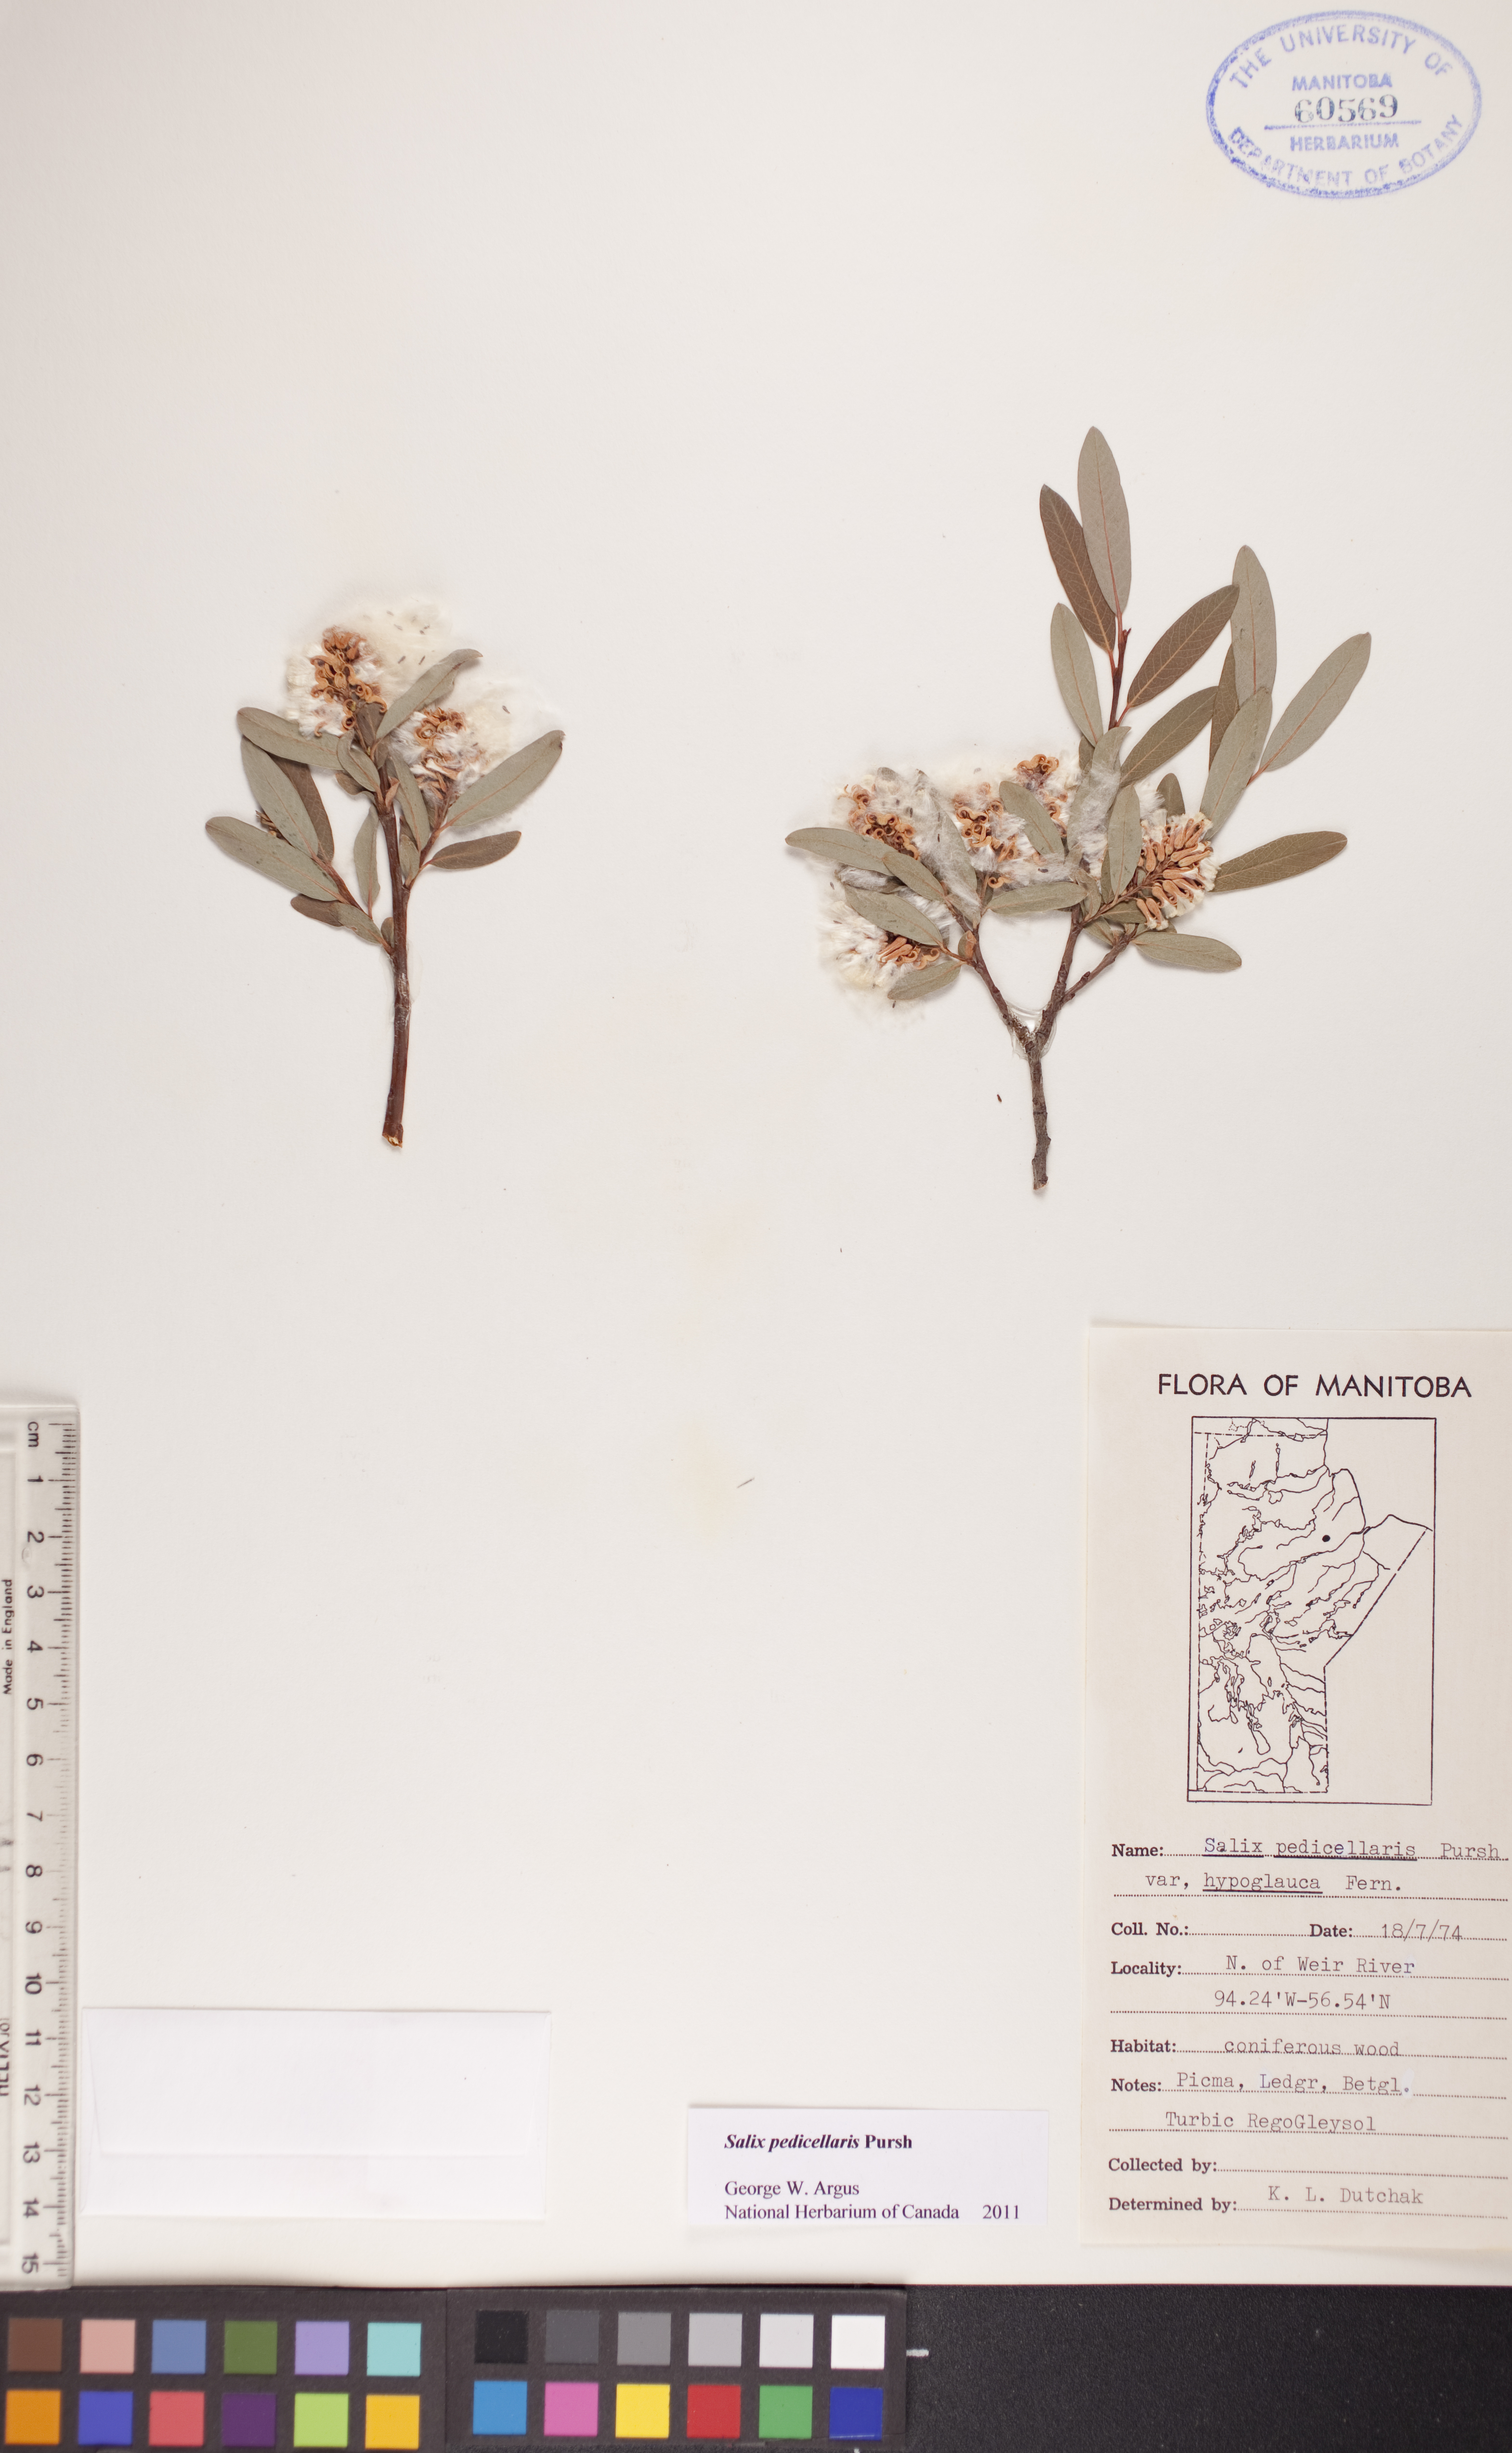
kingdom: Plantae
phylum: Tracheophyta
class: Magnoliopsida
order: Malpighiales
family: Salicaceae
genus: Salix
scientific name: Salix pedicellaris
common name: Bog willow
